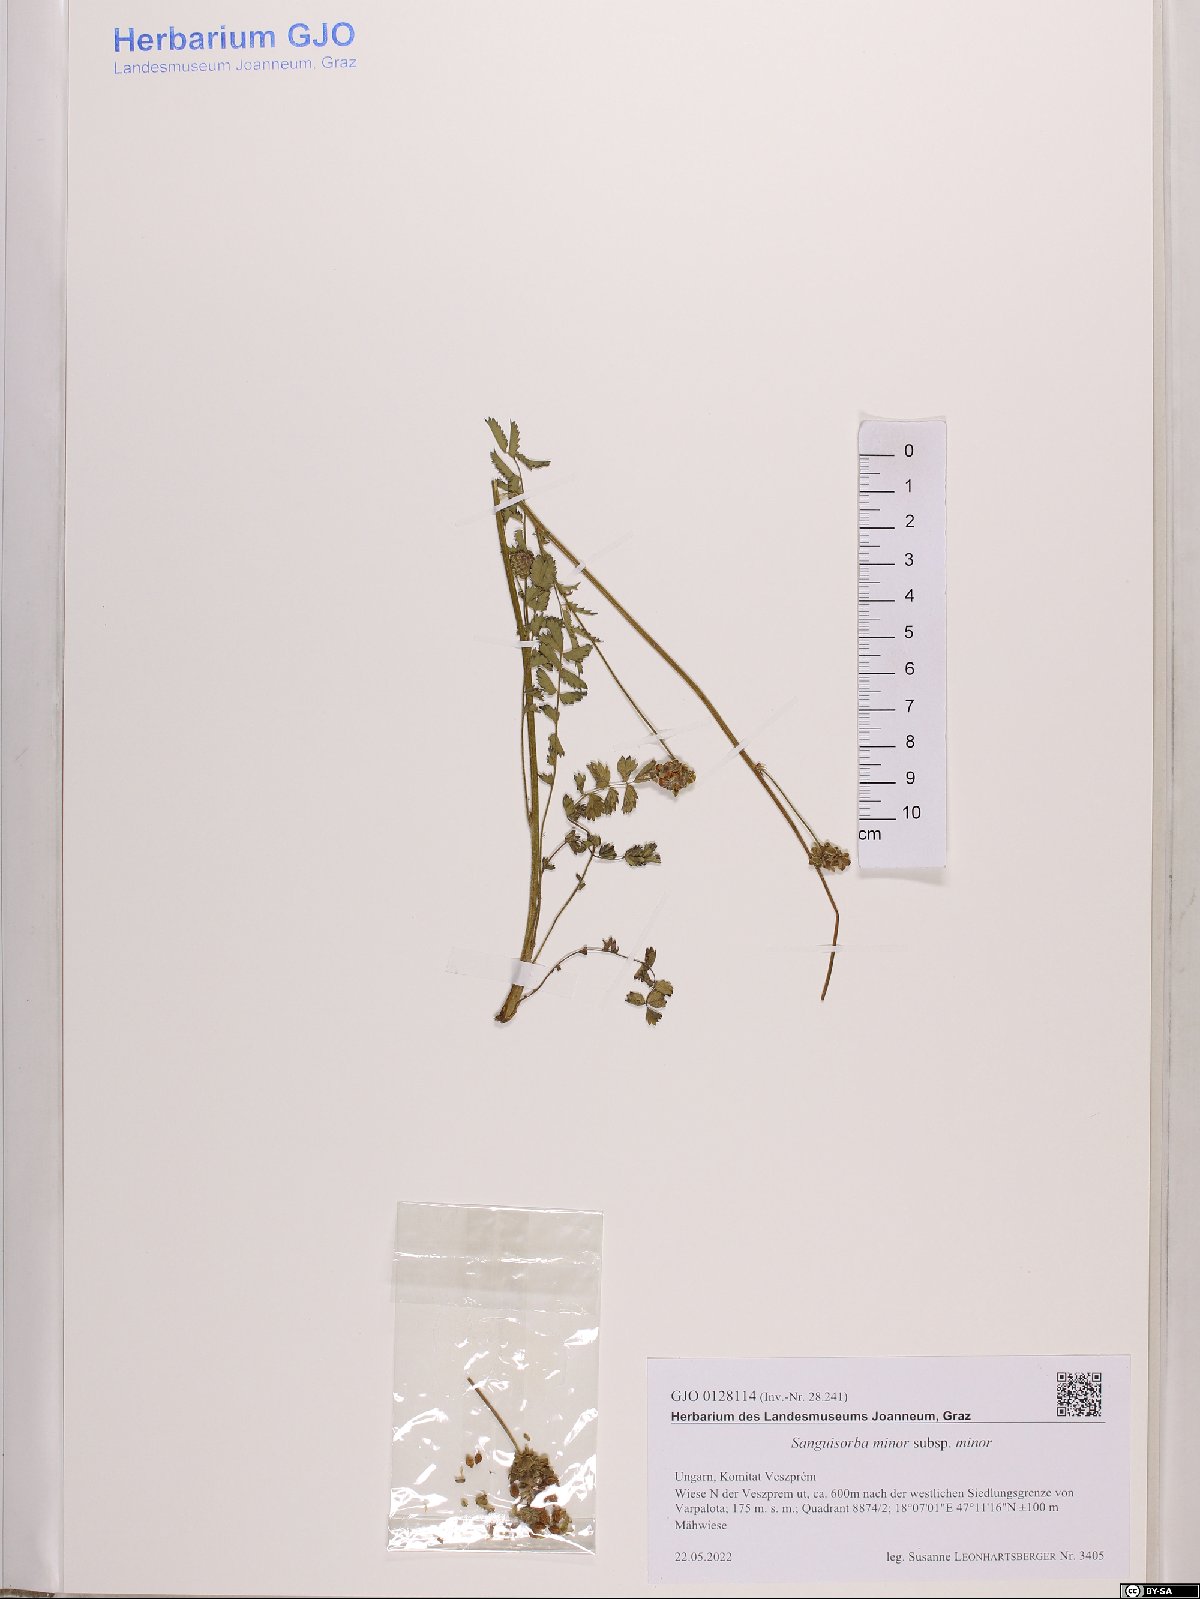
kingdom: Plantae
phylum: Tracheophyta
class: Magnoliopsida
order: Rosales
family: Rosaceae
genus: Poterium
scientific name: Poterium sanguisorba
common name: Salad burnet
